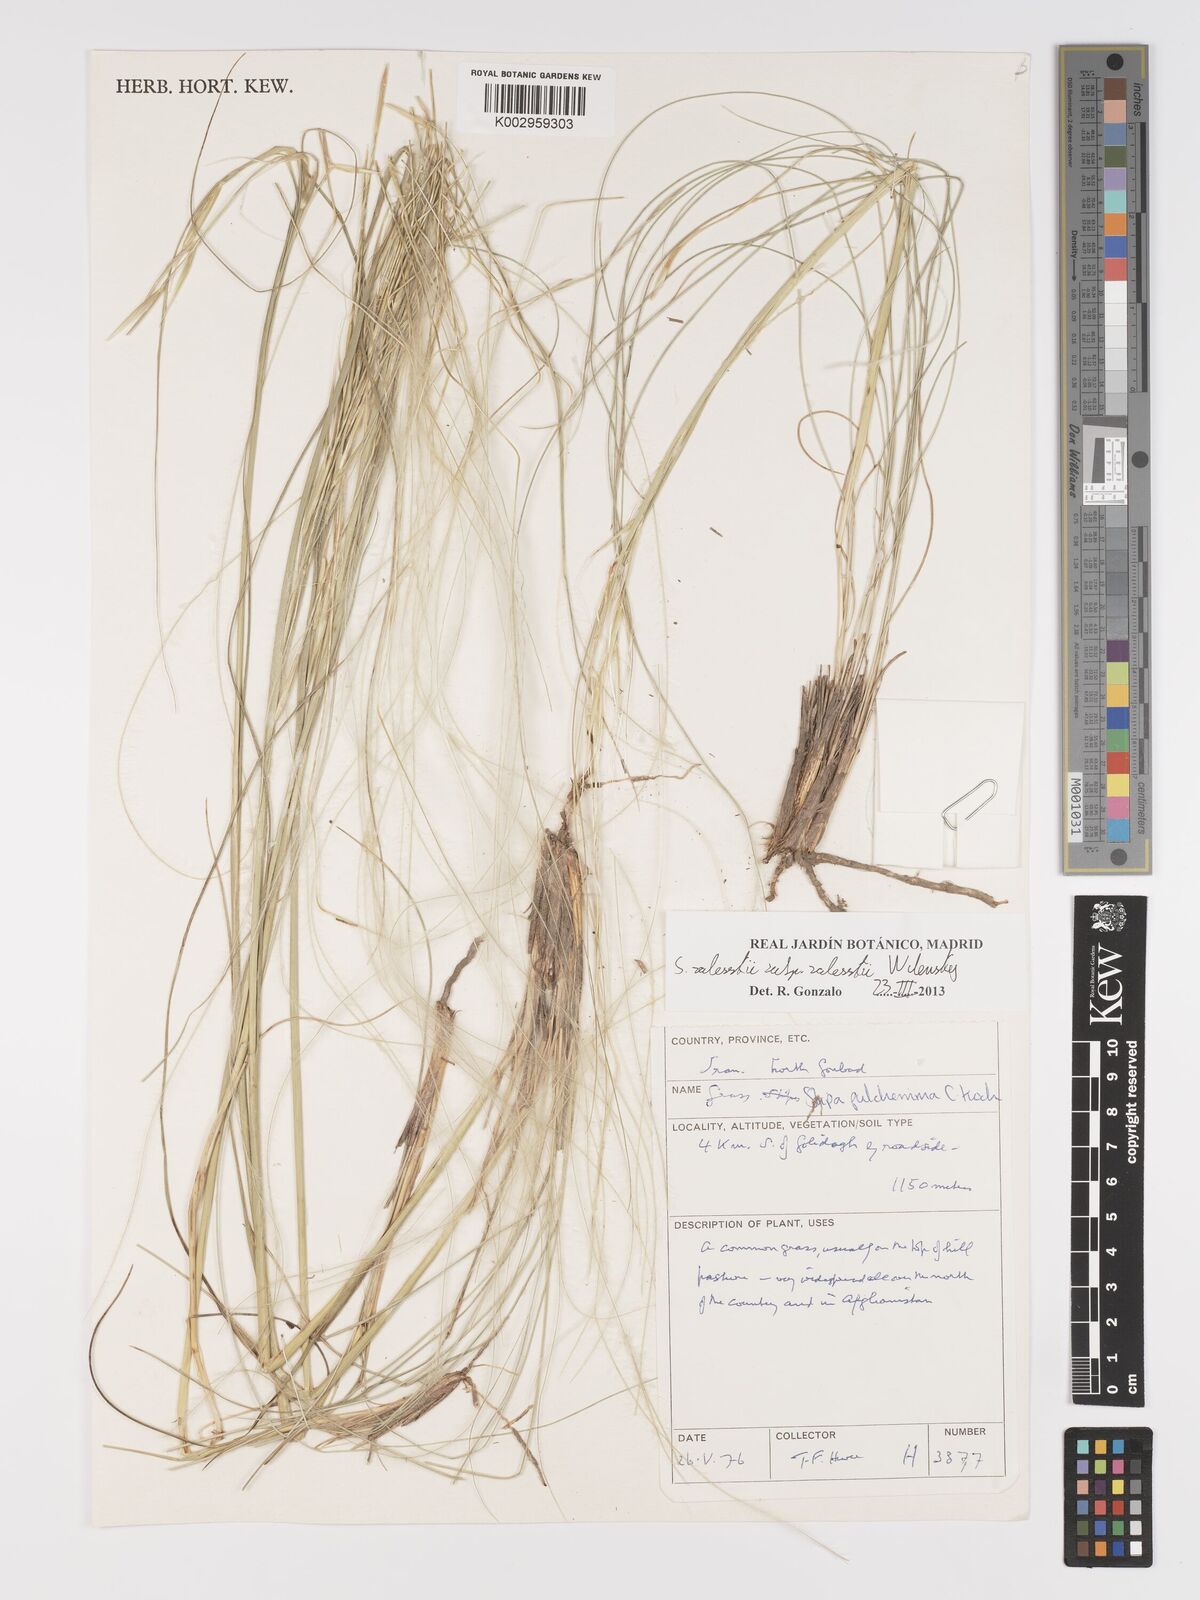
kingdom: Plantae
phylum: Tracheophyta
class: Liliopsida
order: Poales
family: Poaceae
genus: Stipa
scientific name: Stipa zalesskyi
